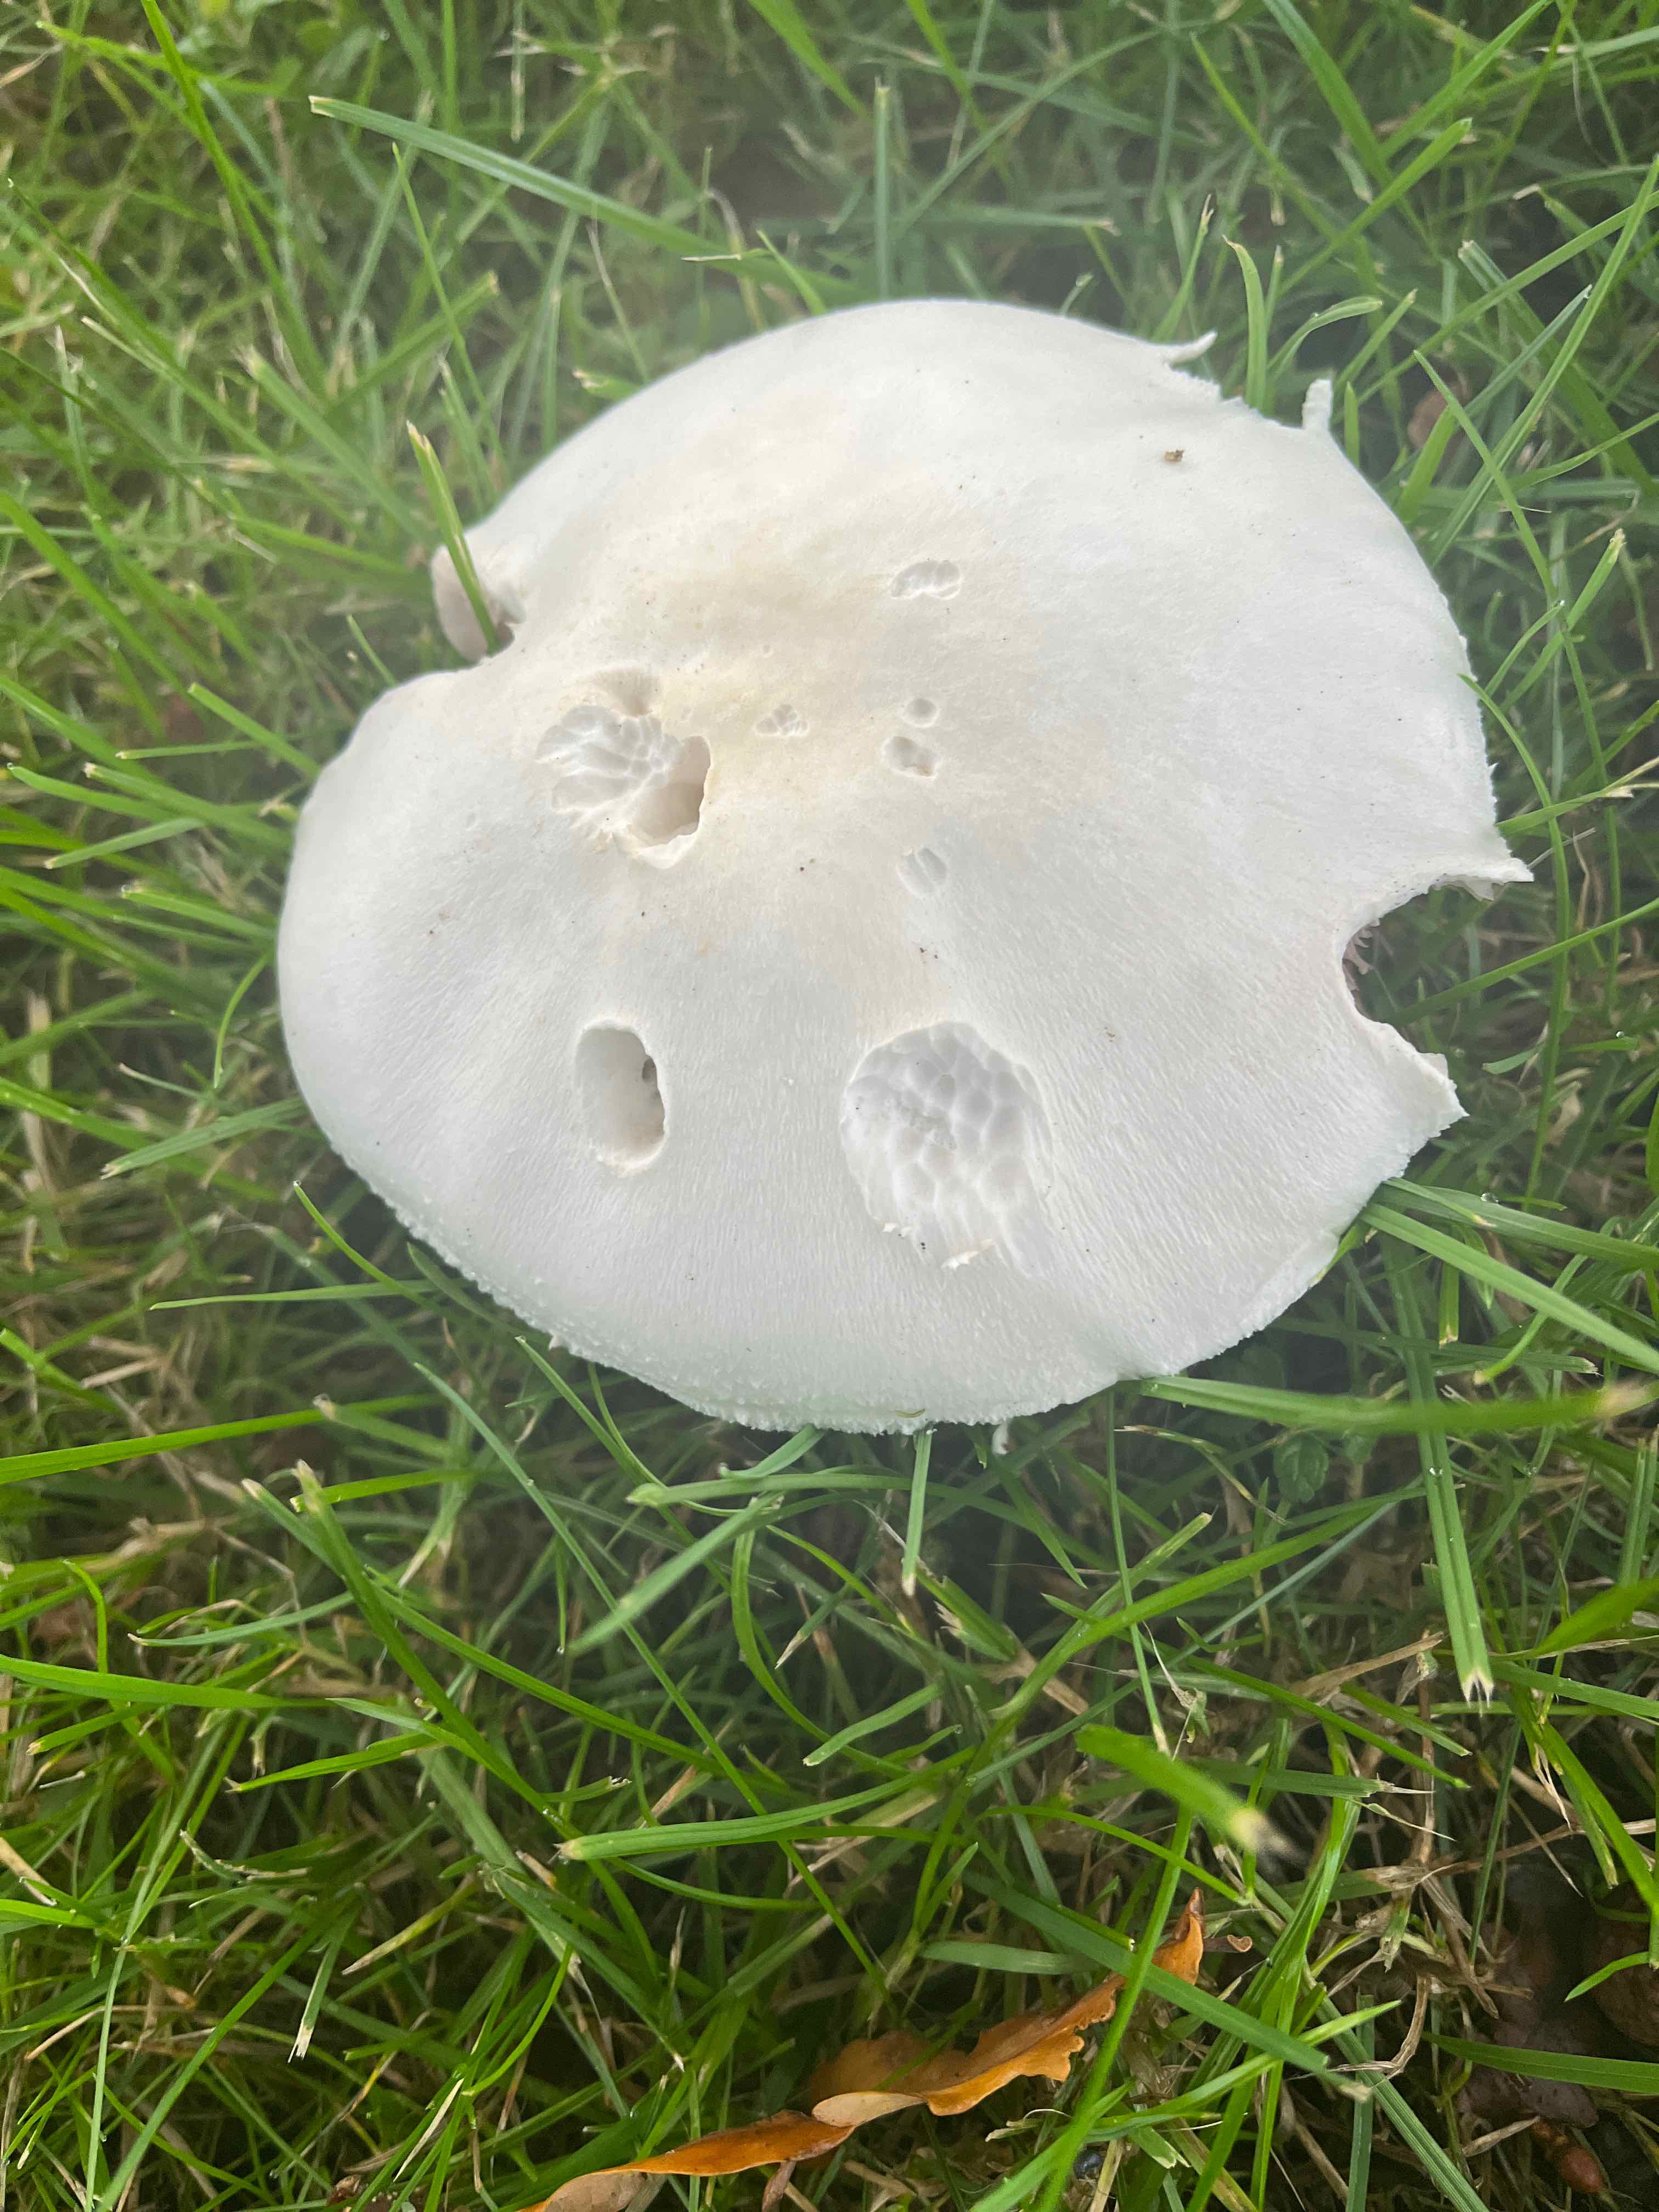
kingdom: Fungi
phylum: Basidiomycota
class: Agaricomycetes
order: Agaricales
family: Agaricaceae
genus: Agaricus
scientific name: Agaricus
